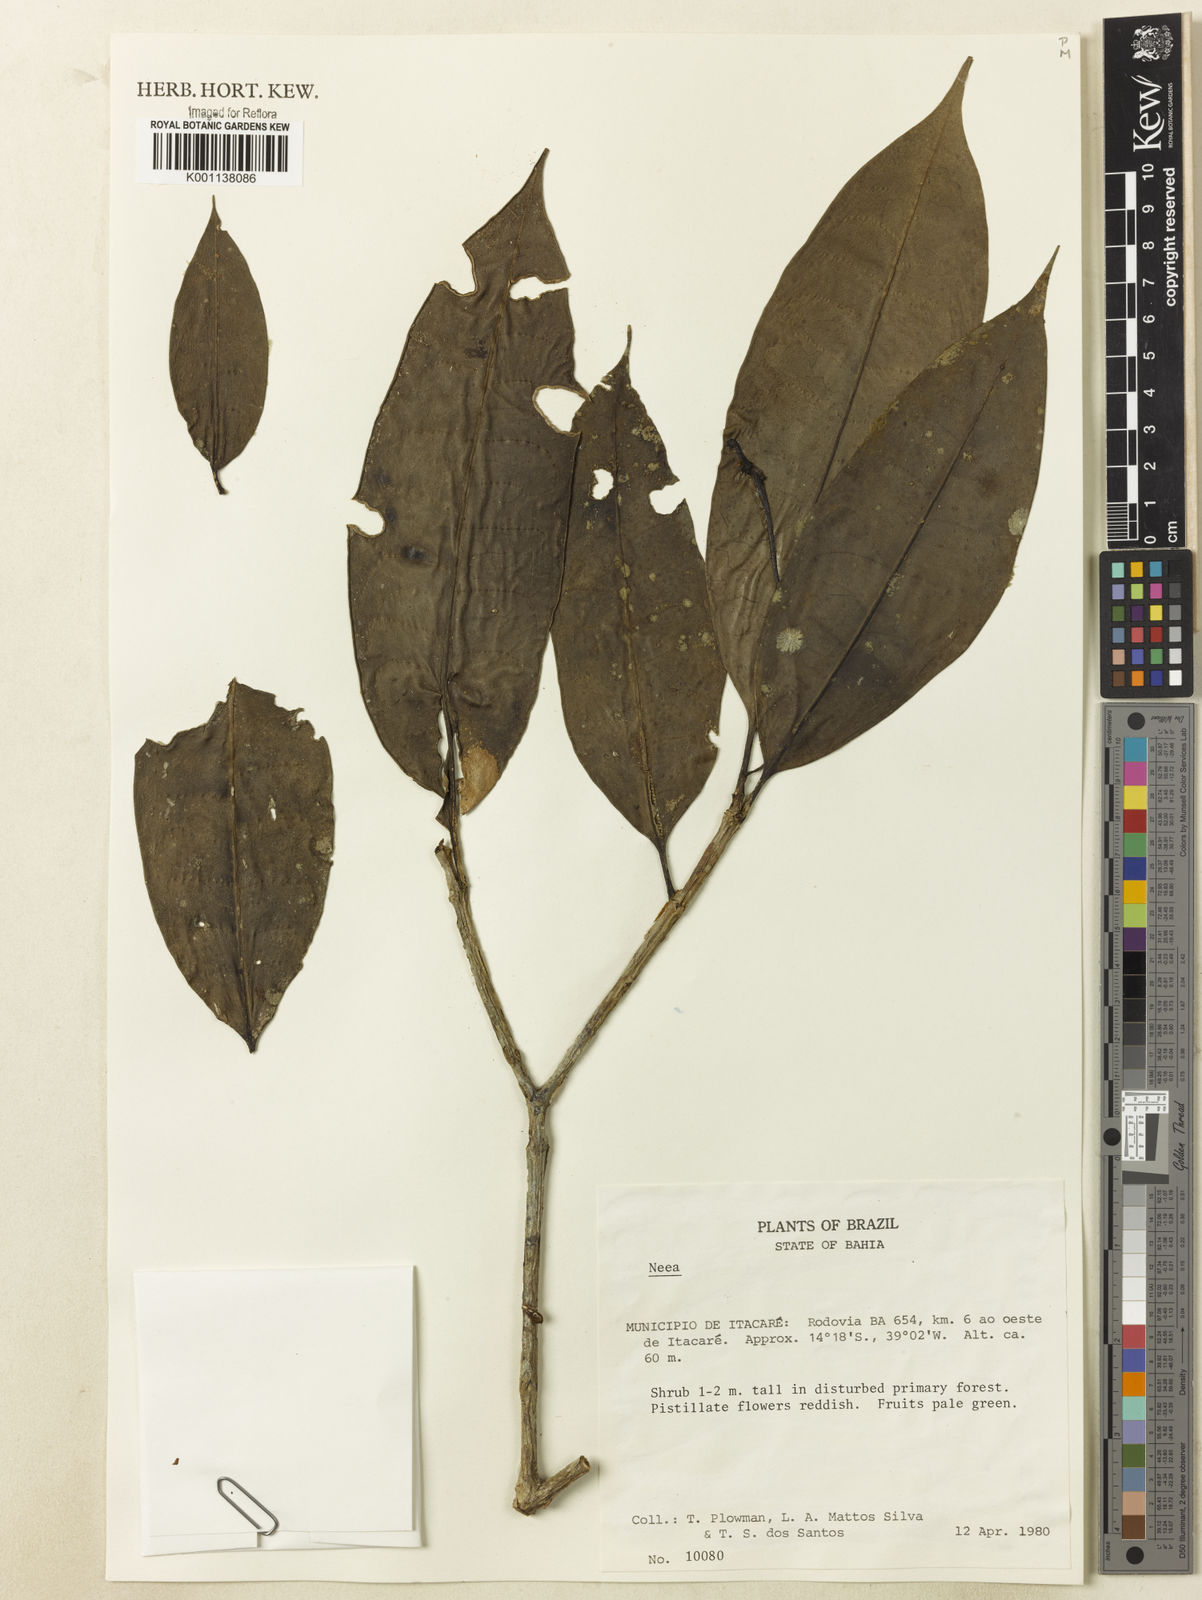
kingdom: Plantae
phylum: Tracheophyta
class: Magnoliopsida
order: Caryophyllales
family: Nyctaginaceae
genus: Neea
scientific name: Neea
